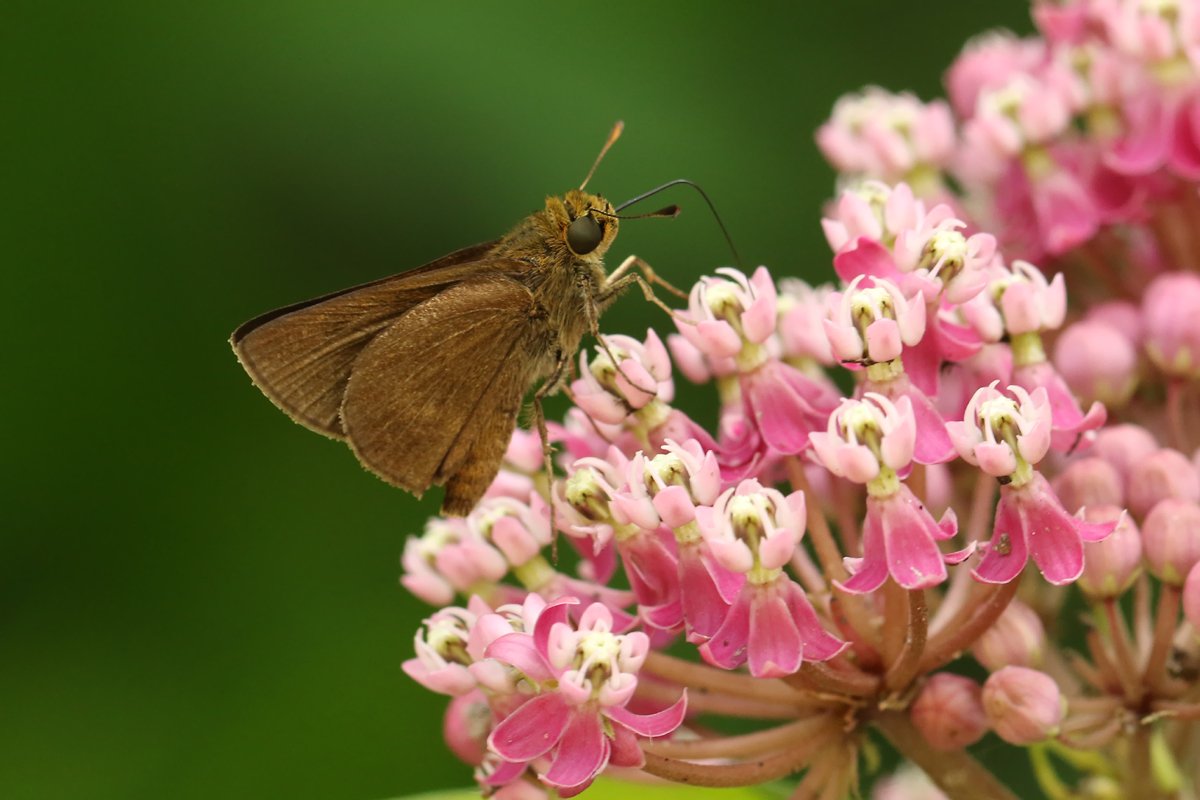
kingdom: Animalia
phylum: Arthropoda
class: Insecta
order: Lepidoptera
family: Hesperiidae
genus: Euphyes
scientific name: Euphyes vestris
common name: Dun Skipper
